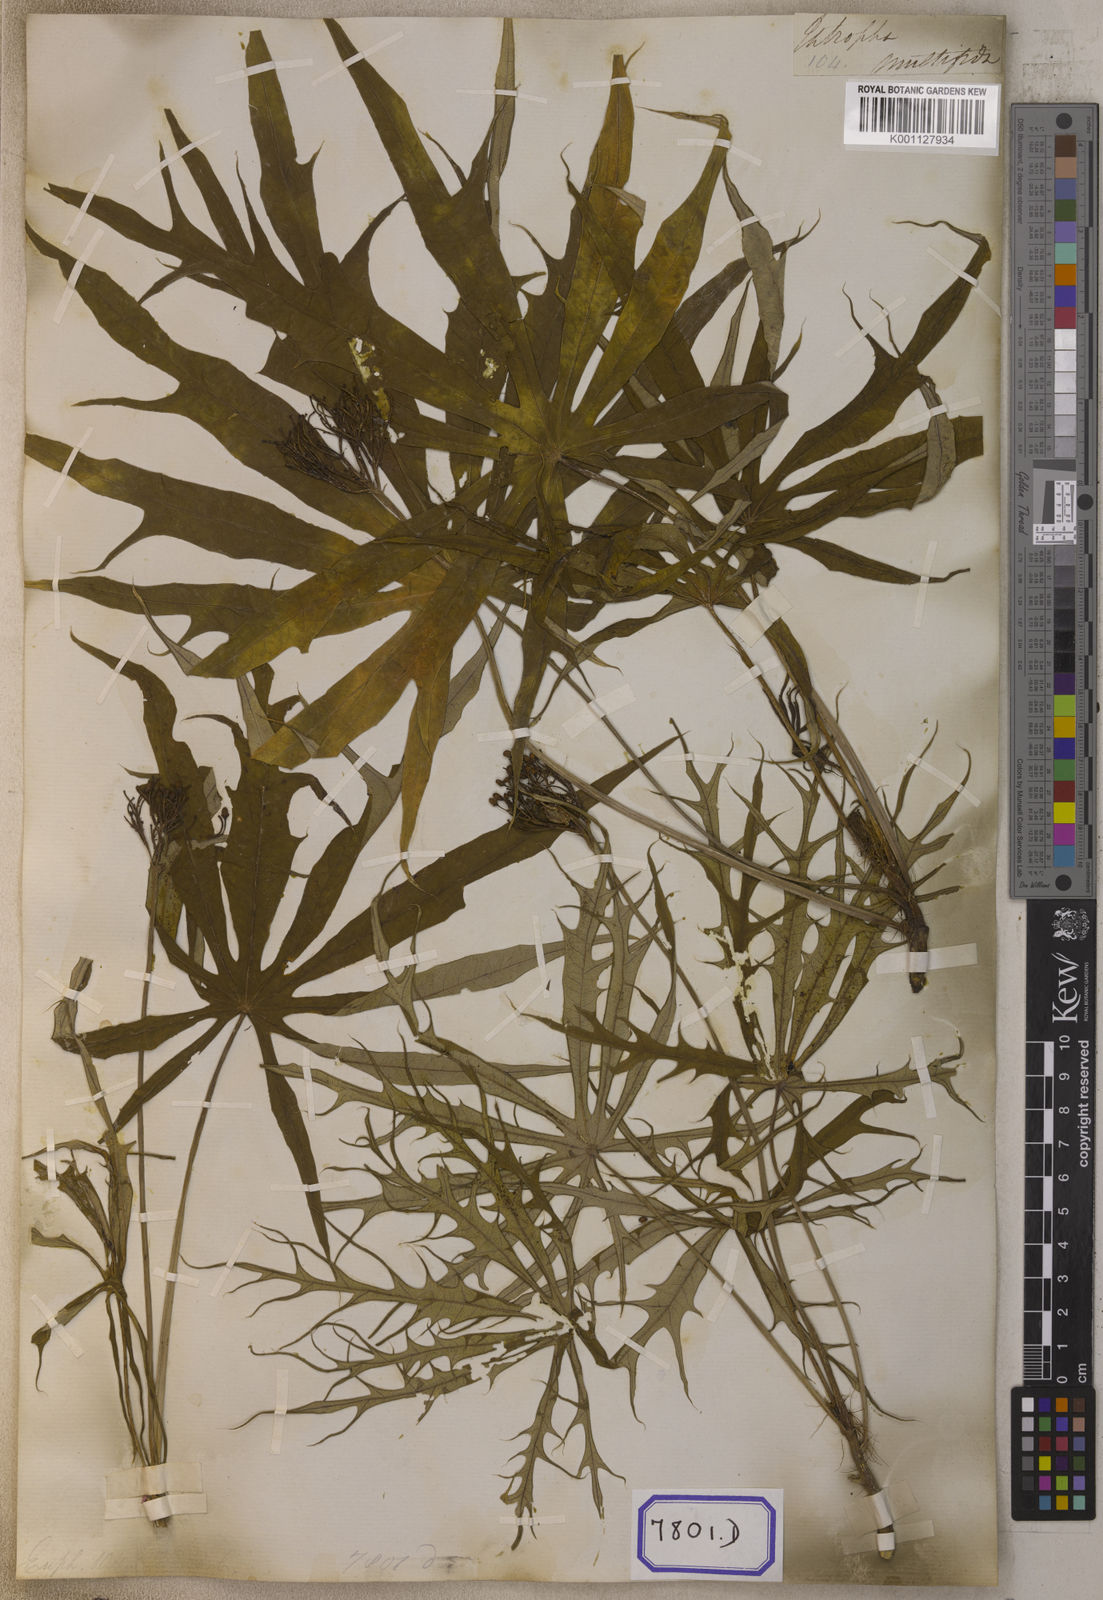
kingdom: Plantae
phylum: Tracheophyta
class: Magnoliopsida
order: Malpighiales
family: Euphorbiaceae
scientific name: Euphorbiaceae
